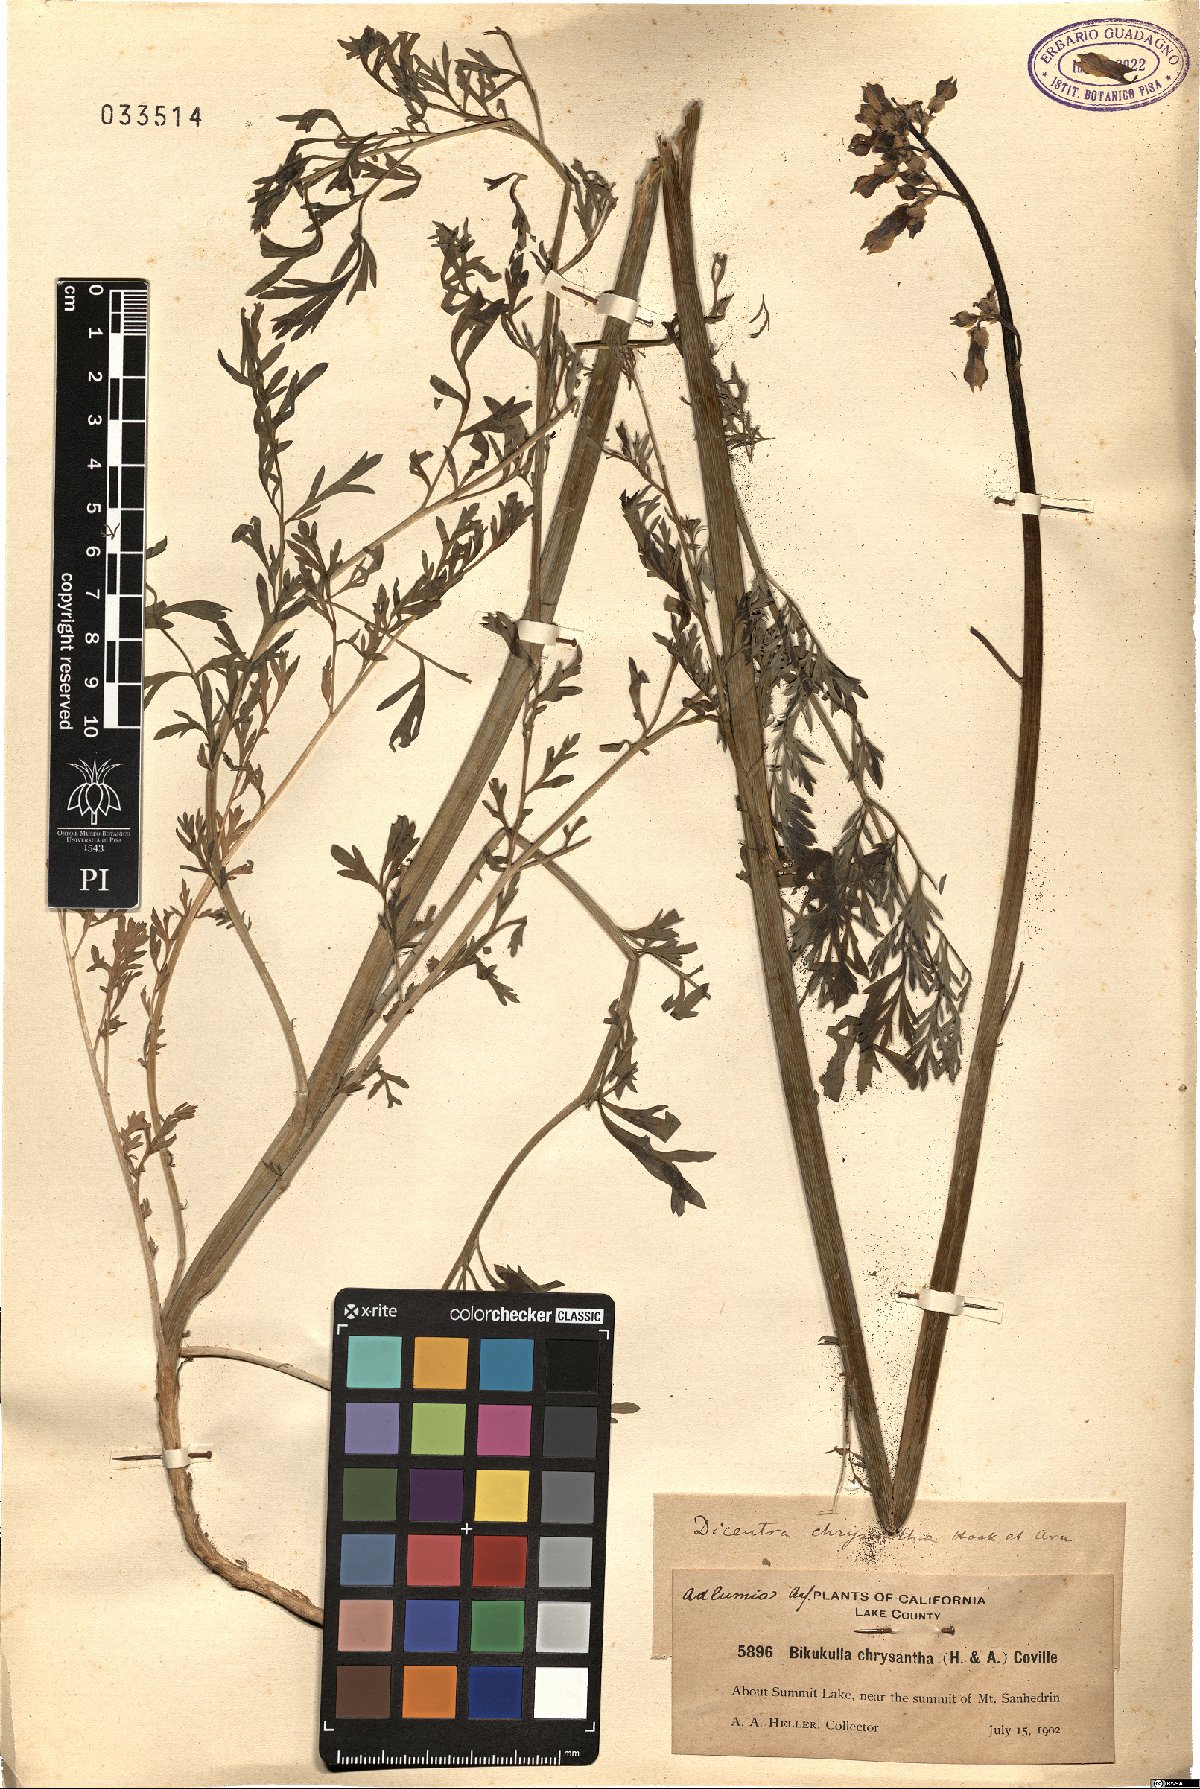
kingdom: Plantae
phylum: Tracheophyta
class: Magnoliopsida
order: Ranunculales
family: Papaveraceae
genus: Ehrendorferia
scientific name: Ehrendorferia chrysantha
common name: Golden eardrops
